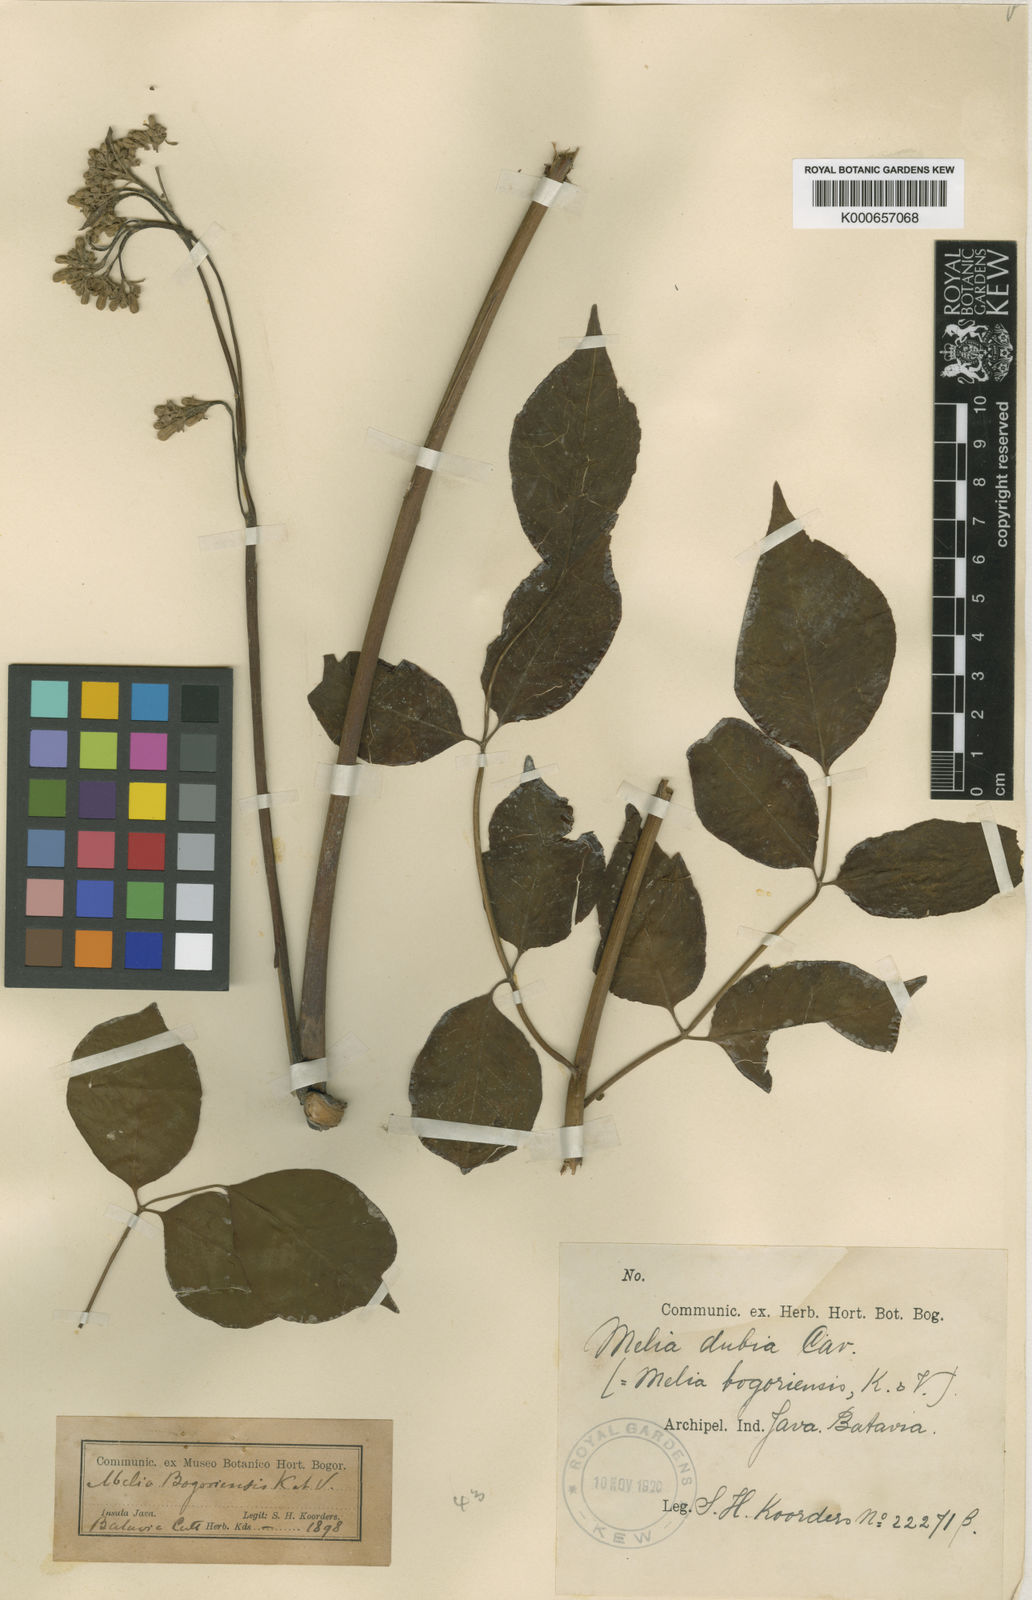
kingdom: Plantae
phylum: Tracheophyta
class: Magnoliopsida
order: Sapindales
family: Meliaceae
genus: Melia
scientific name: Melia azedarach
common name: Chinaberrytree
